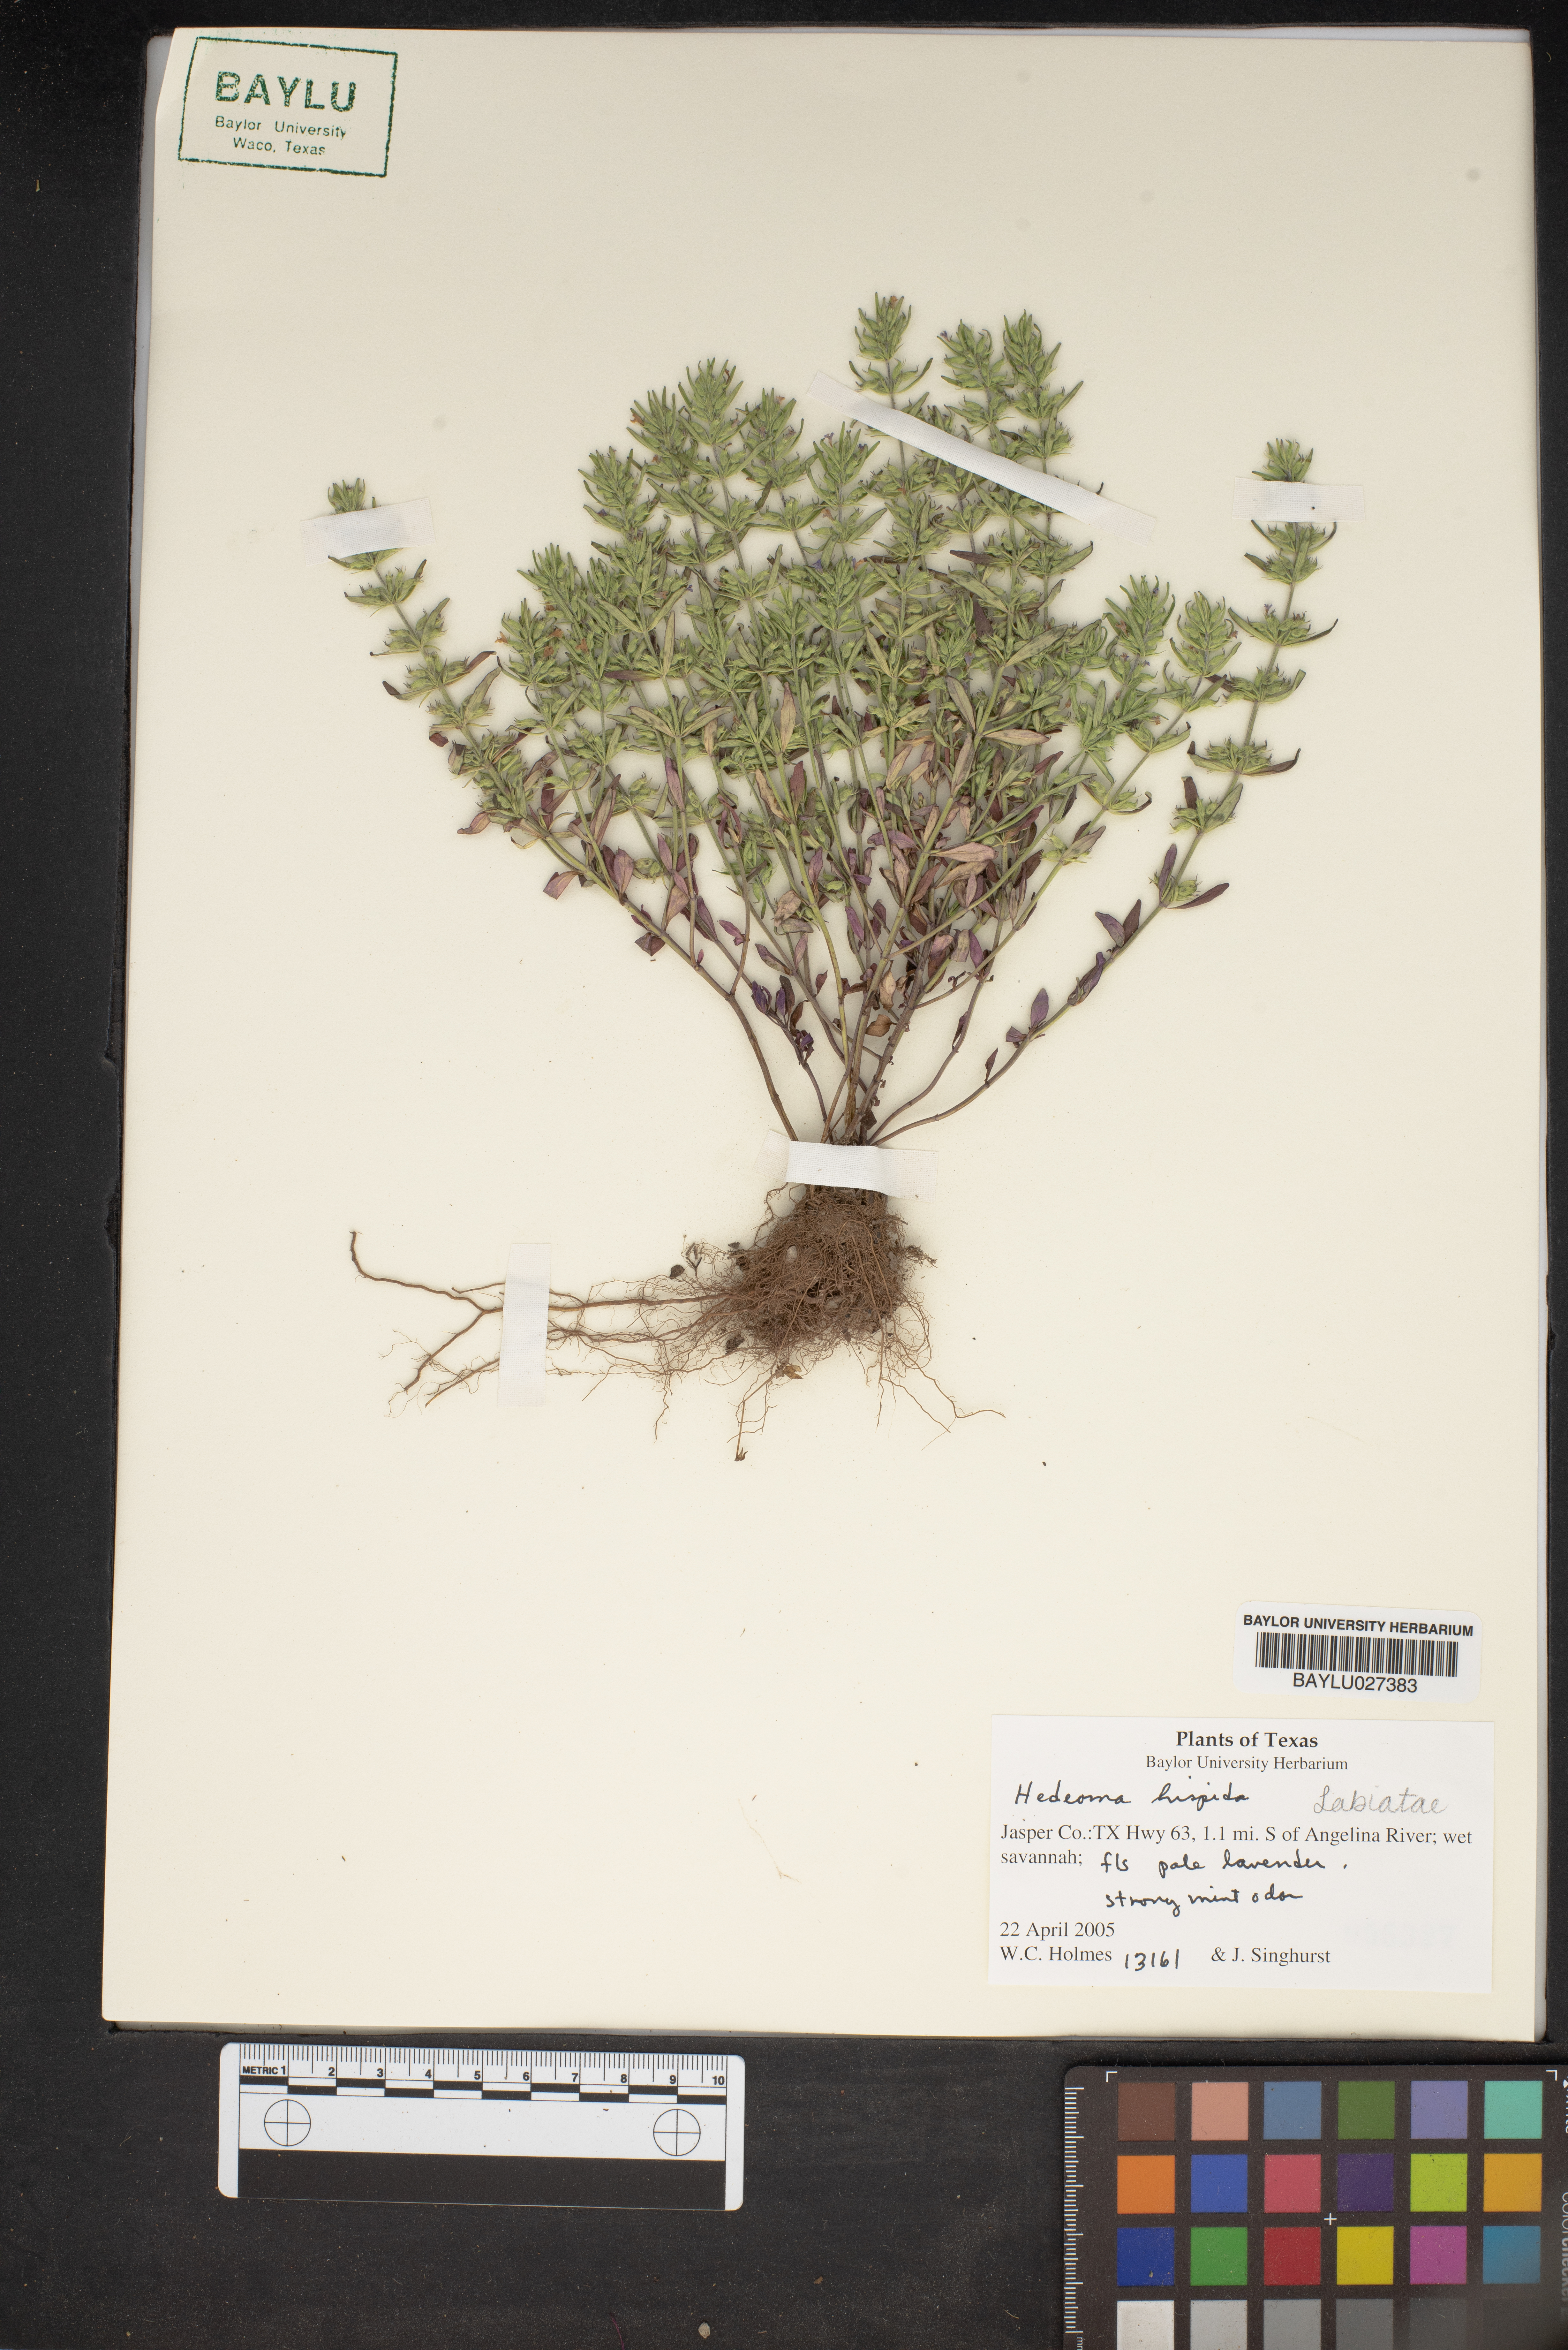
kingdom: Plantae
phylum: Tracheophyta
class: Magnoliopsida
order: Lamiales
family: Lamiaceae
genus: Hedeoma
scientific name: Hedeoma hispida
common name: Mock pennyroyal
